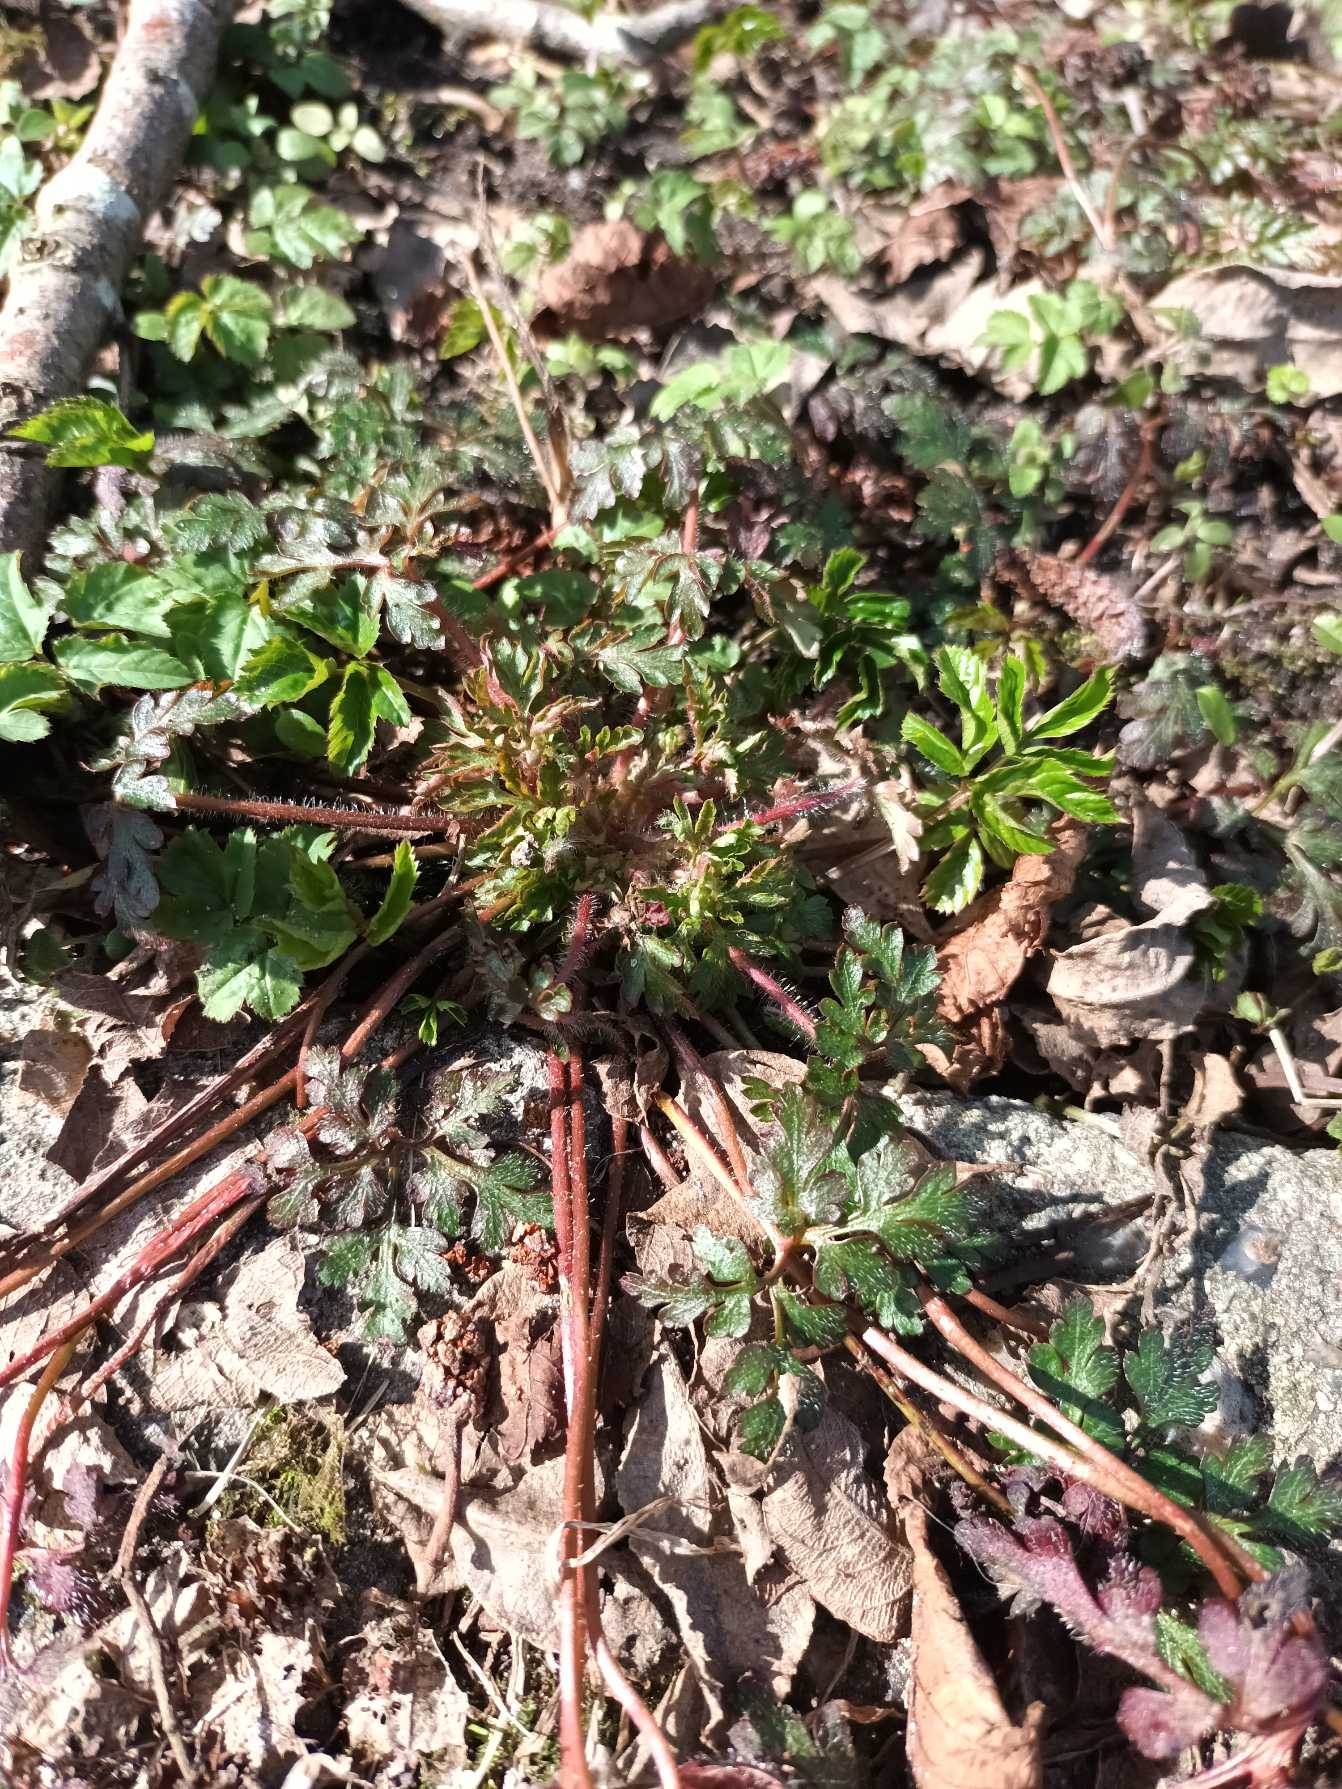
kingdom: Plantae
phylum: Tracheophyta
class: Magnoliopsida
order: Geraniales
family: Geraniaceae
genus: Geranium
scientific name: Geranium robertianum
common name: Stinkende storkenæb
